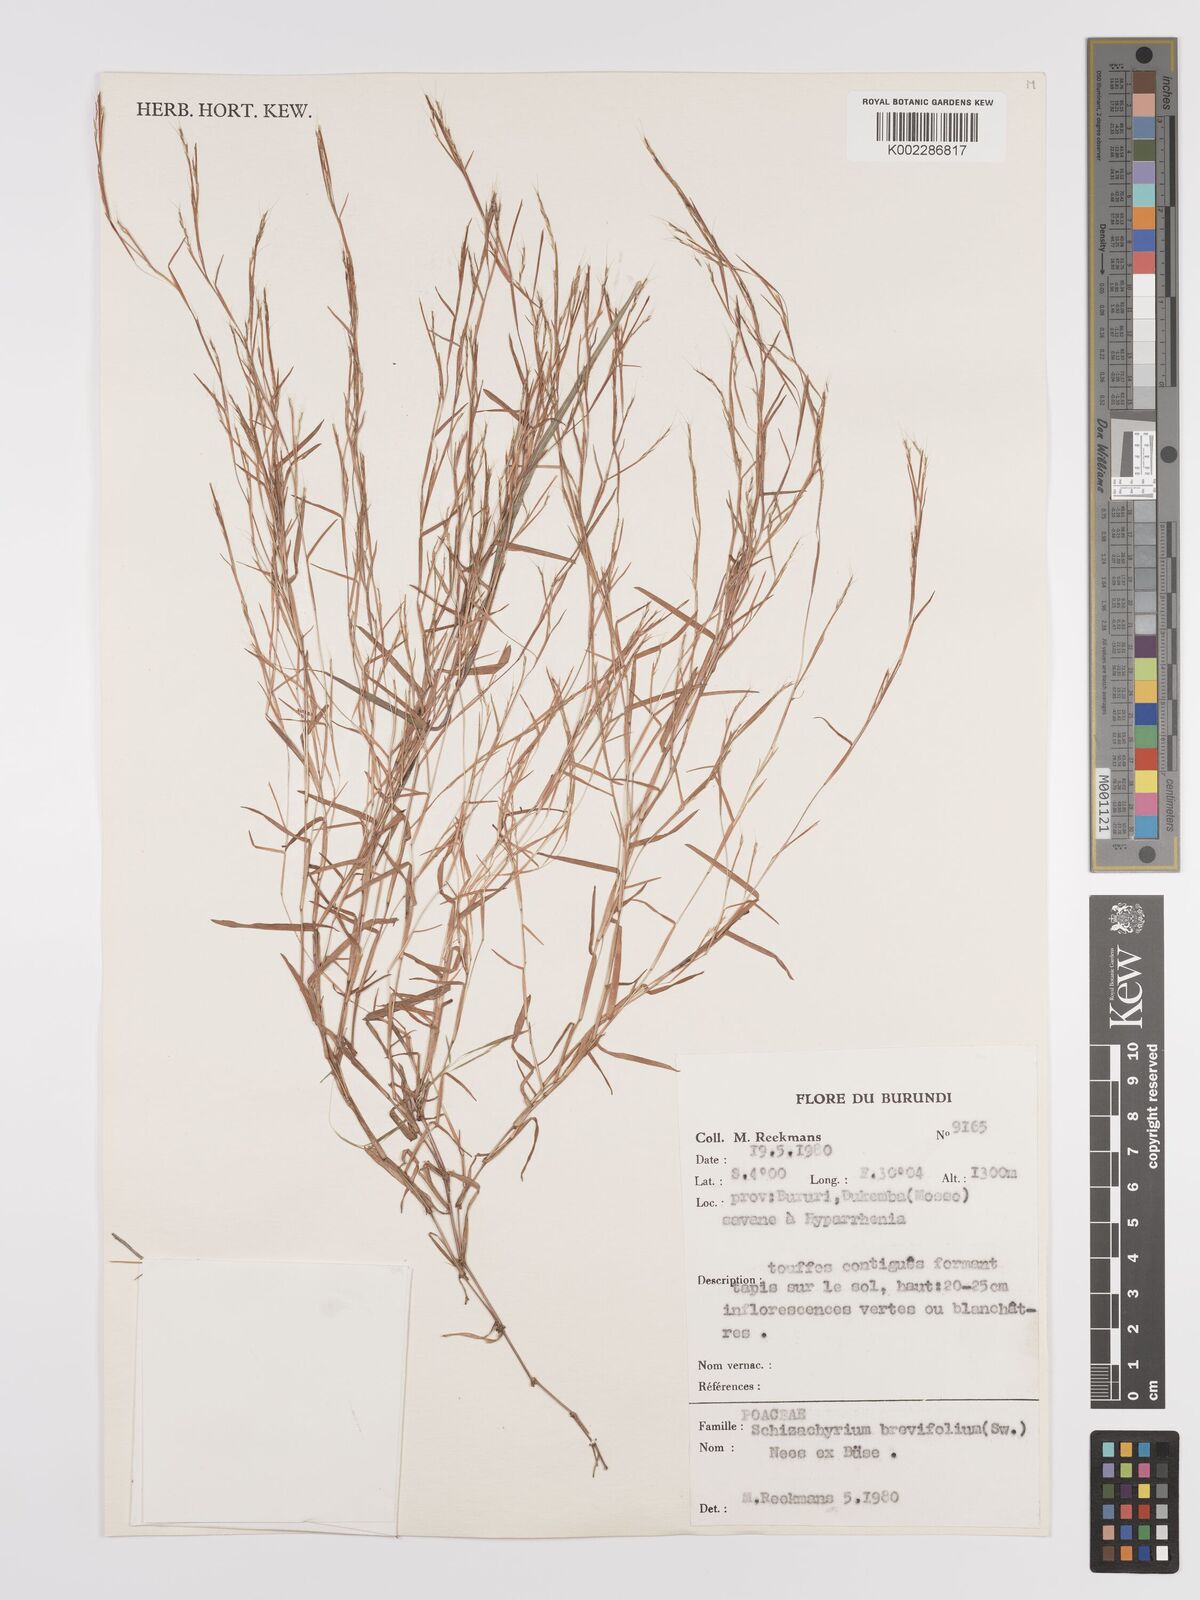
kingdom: Plantae
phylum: Tracheophyta
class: Liliopsida
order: Poales
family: Poaceae
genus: Schizachyrium
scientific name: Schizachyrium brevifolium
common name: Serillo dulce
